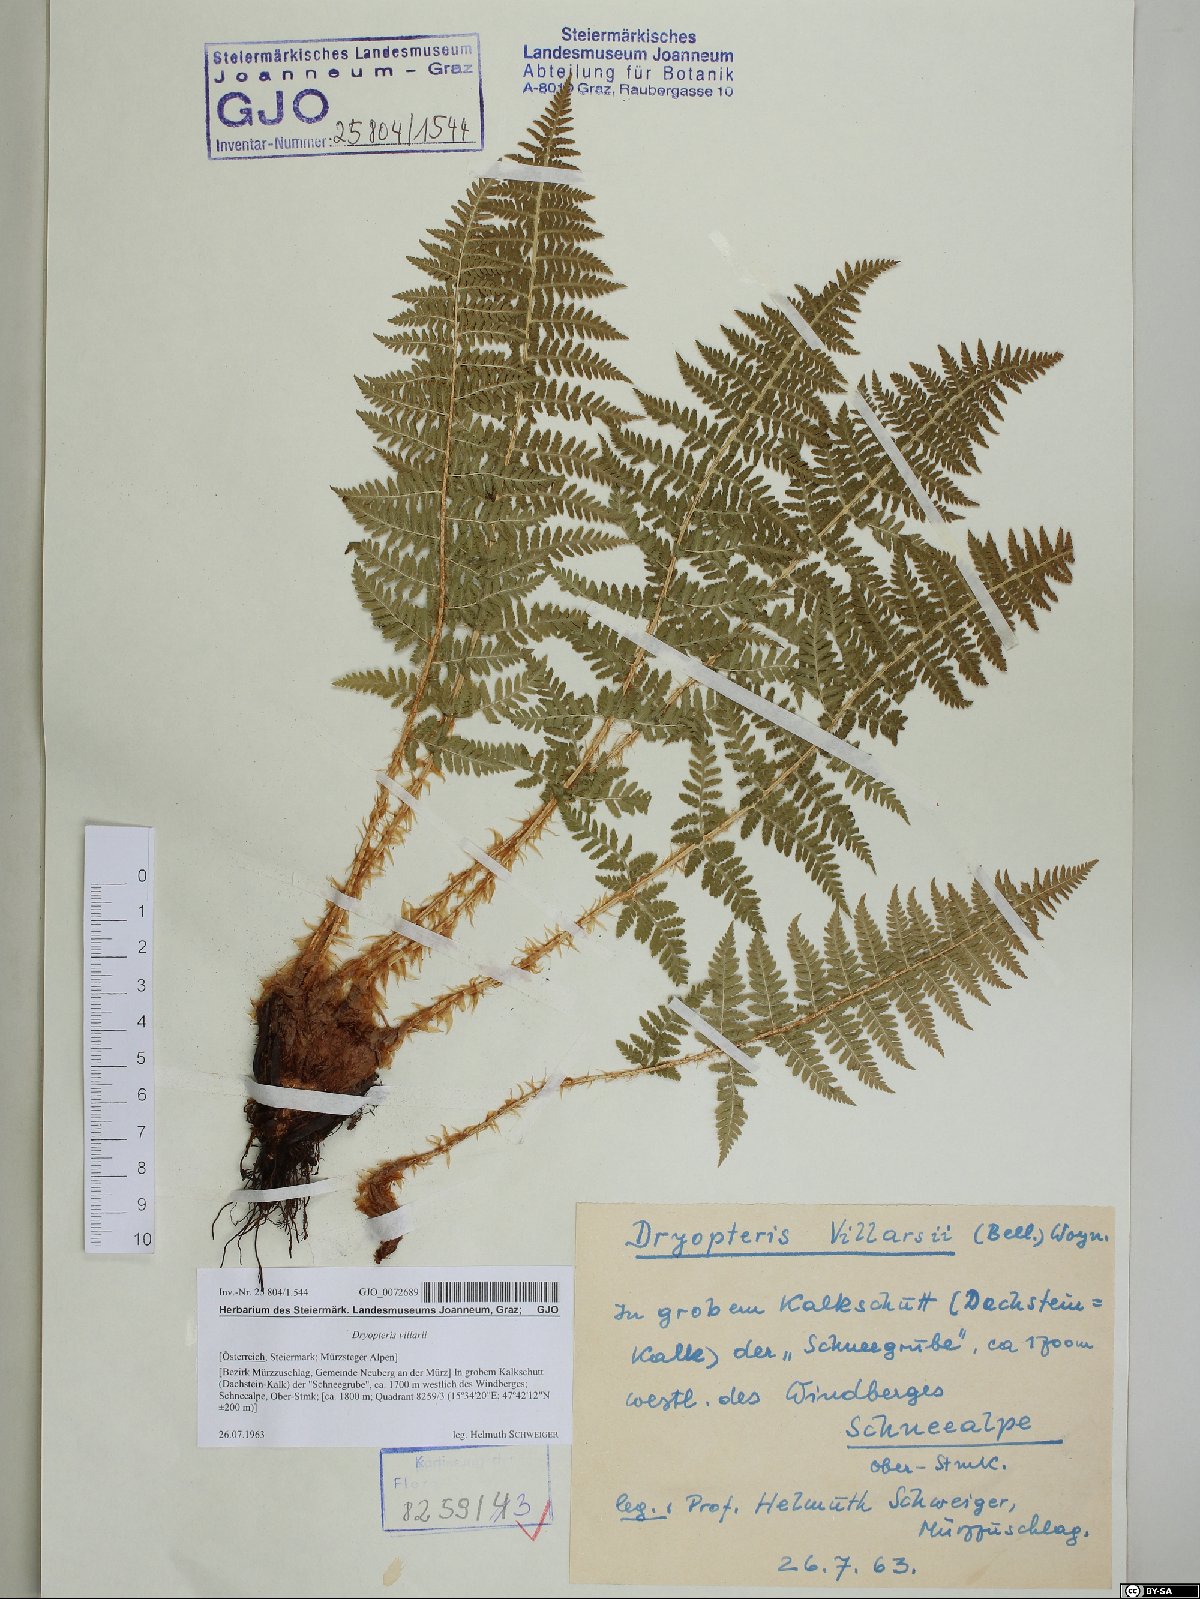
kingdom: Plantae
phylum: Tracheophyta
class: Polypodiopsida
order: Polypodiales
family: Dryopteridaceae
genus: Dryopteris
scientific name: Dryopteris villarii
